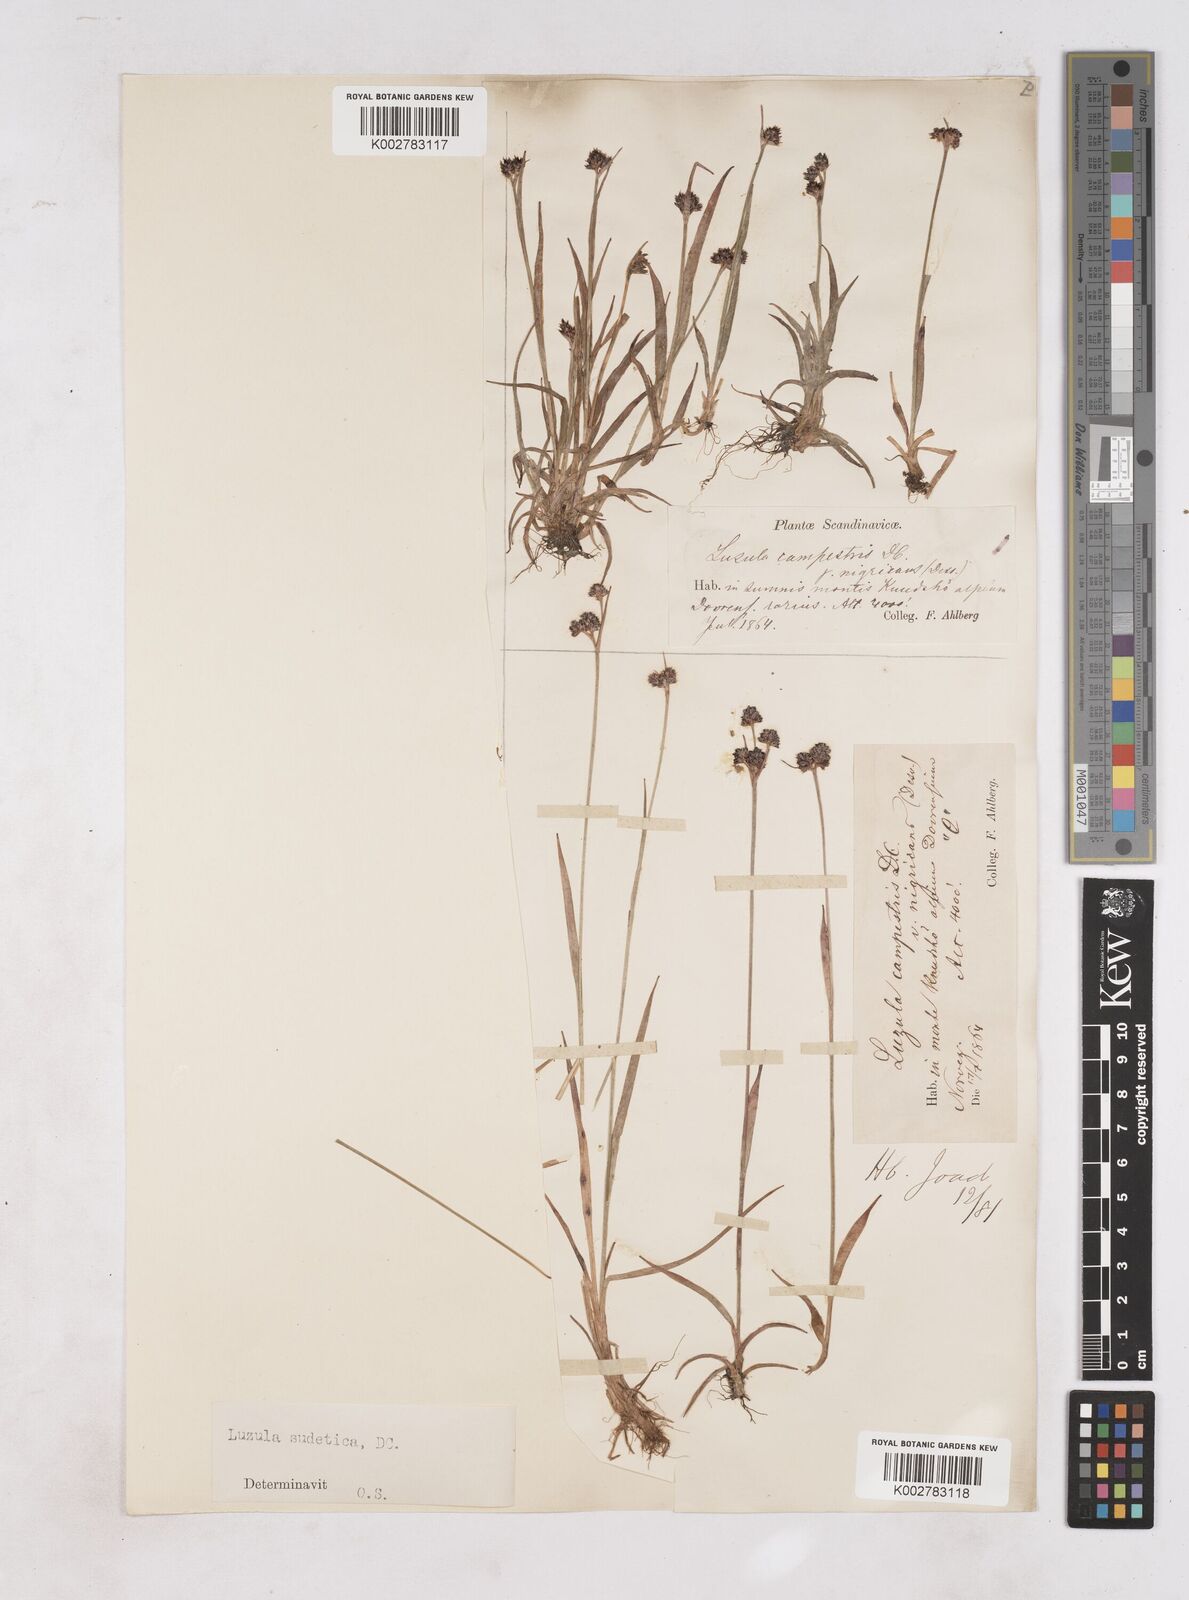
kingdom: Plantae
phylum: Tracheophyta
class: Liliopsida
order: Poales
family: Juncaceae
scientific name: Juncaceae
